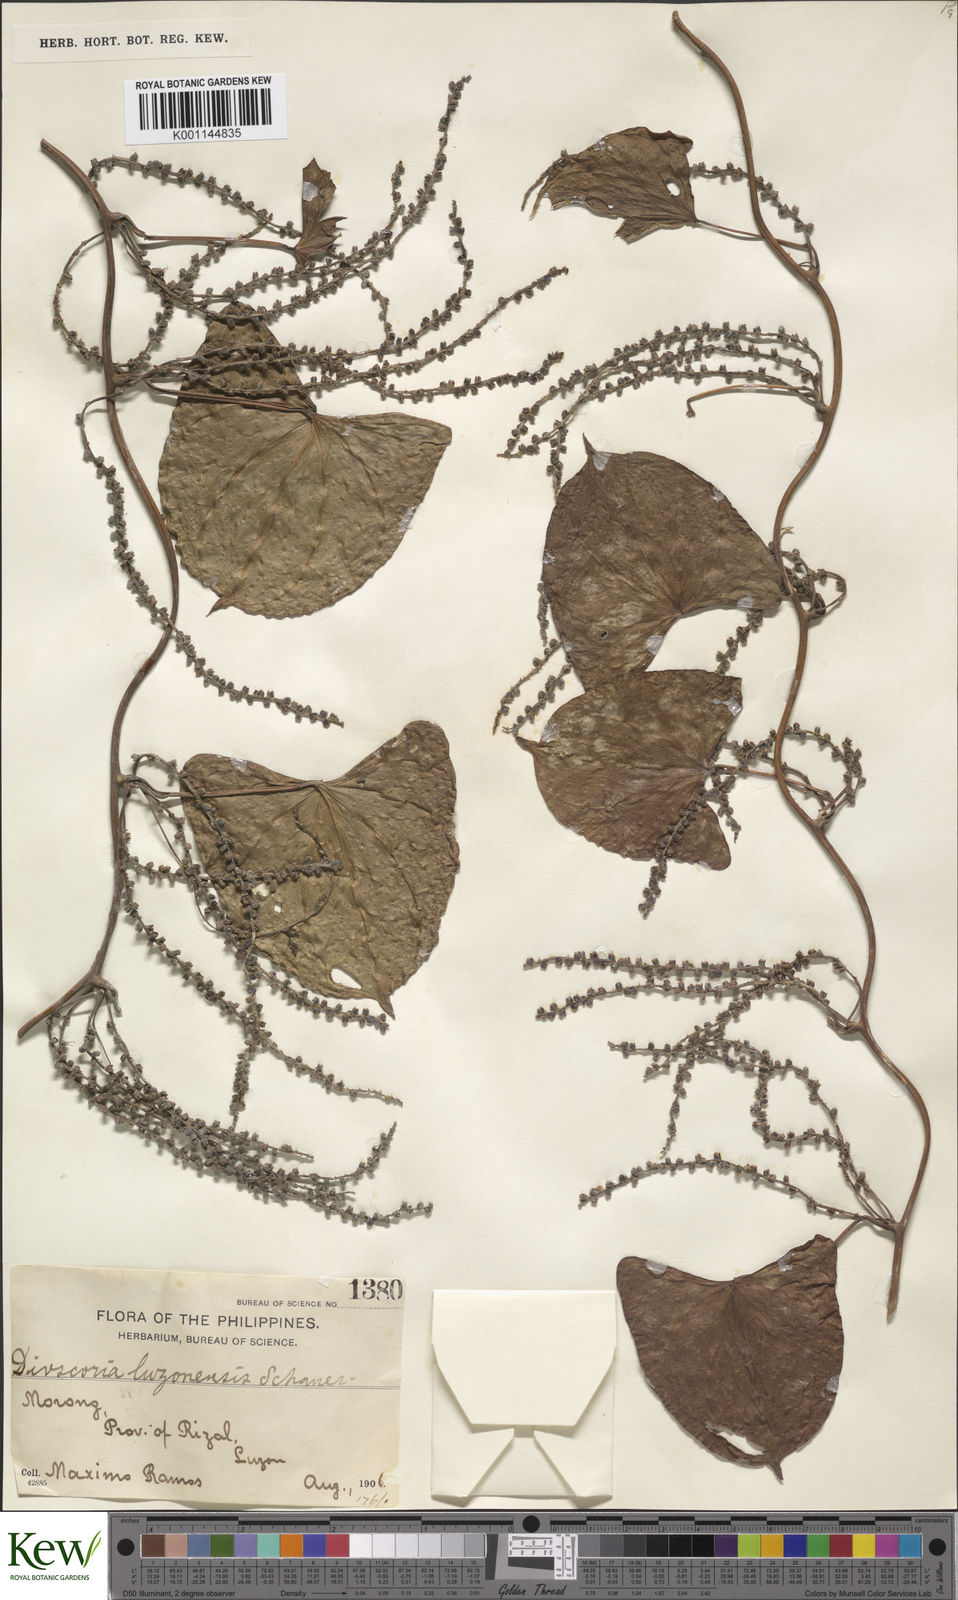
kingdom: Plantae
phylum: Tracheophyta
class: Liliopsida
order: Dioscoreales
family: Dioscoreaceae
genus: Dioscorea
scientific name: Dioscorea
